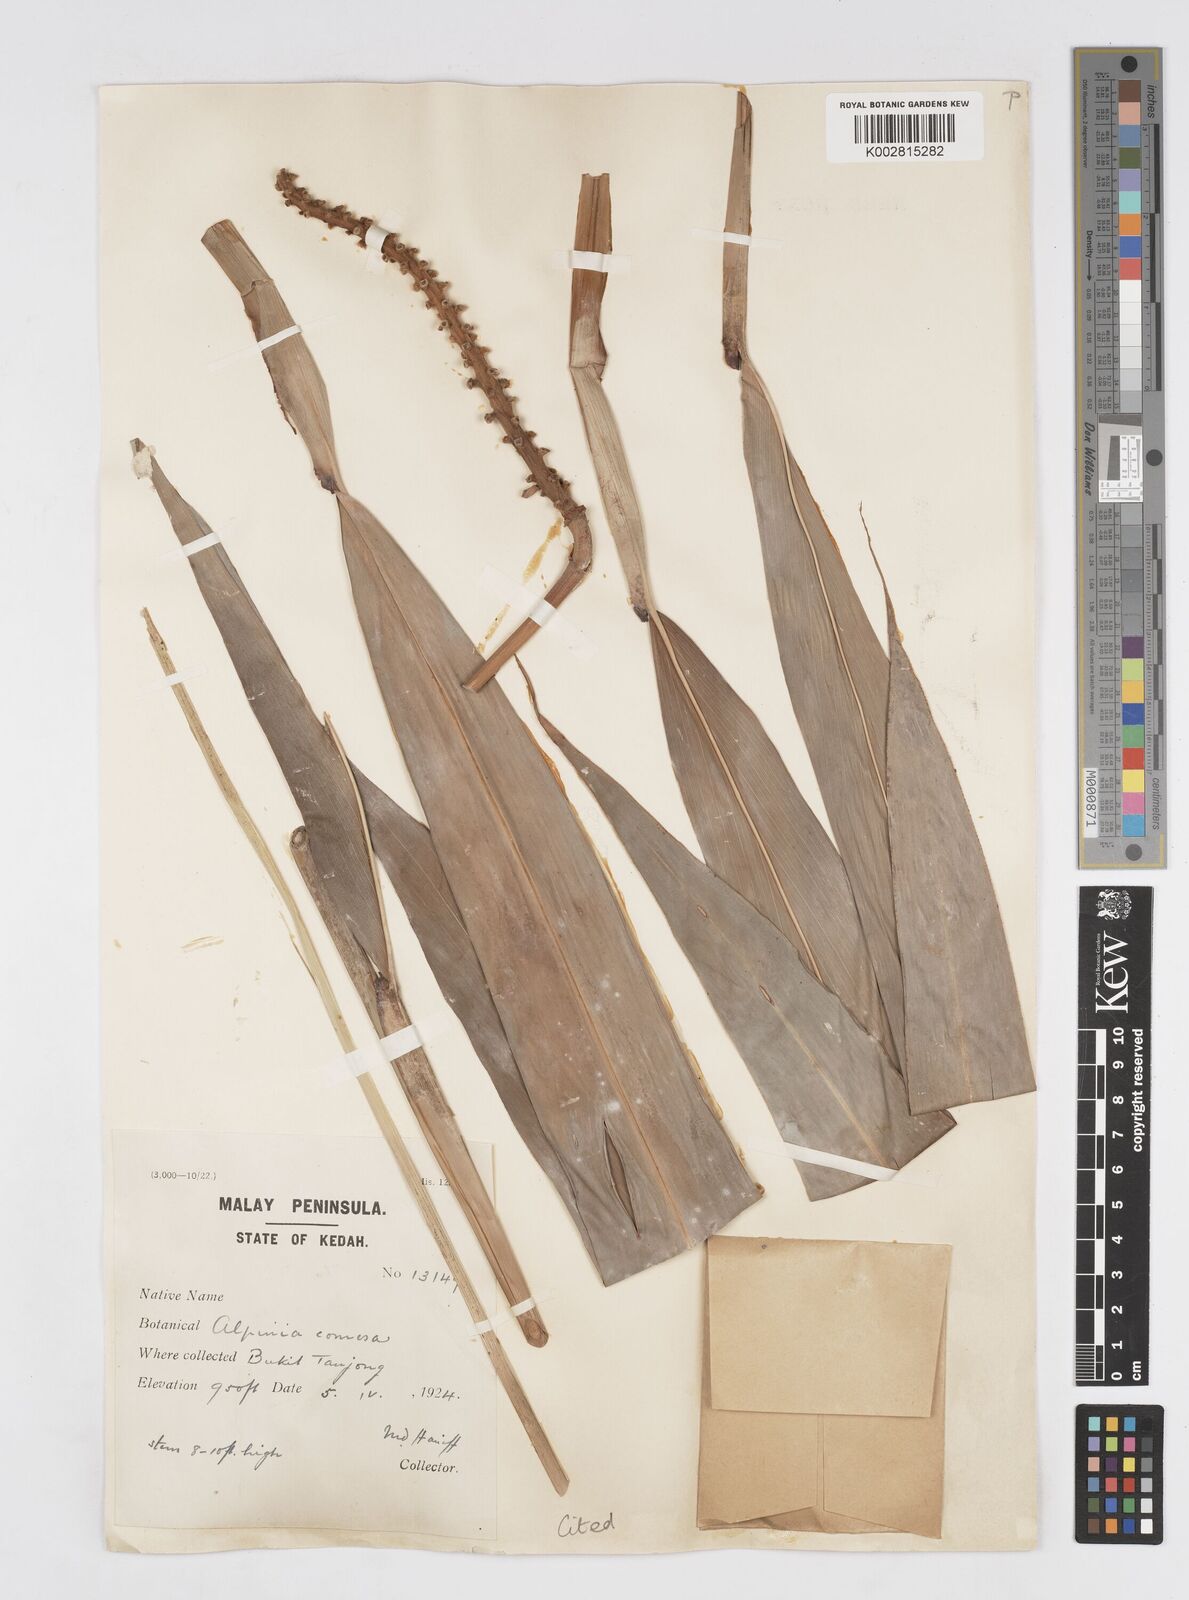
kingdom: Plantae
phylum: Tracheophyta
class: Liliopsida
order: Zingiberales
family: Zingiberaceae
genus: Alpinia
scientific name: Alpinia oxymitra
